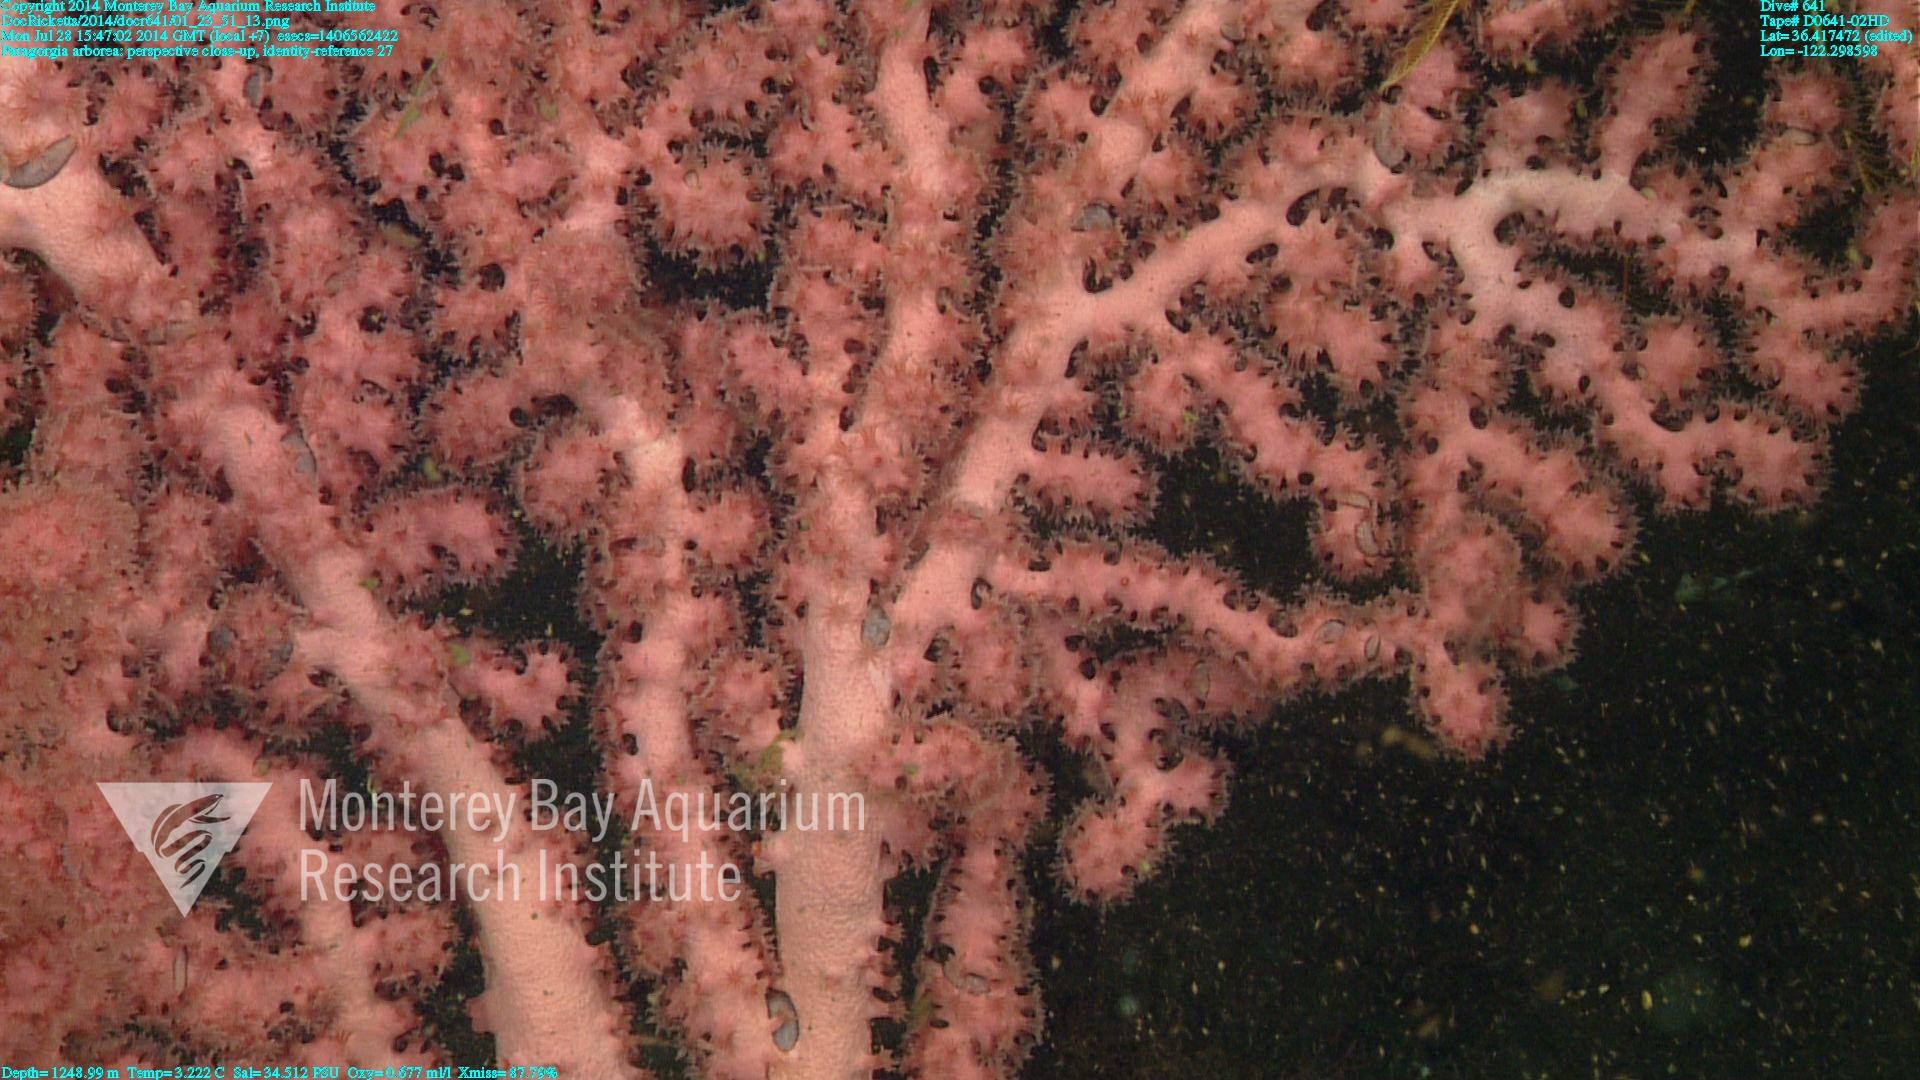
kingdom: Animalia
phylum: Cnidaria
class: Anthozoa
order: Scleralcyonacea
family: Coralliidae
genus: Paragorgia
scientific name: Paragorgia arborea
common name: Bubble gum coral
